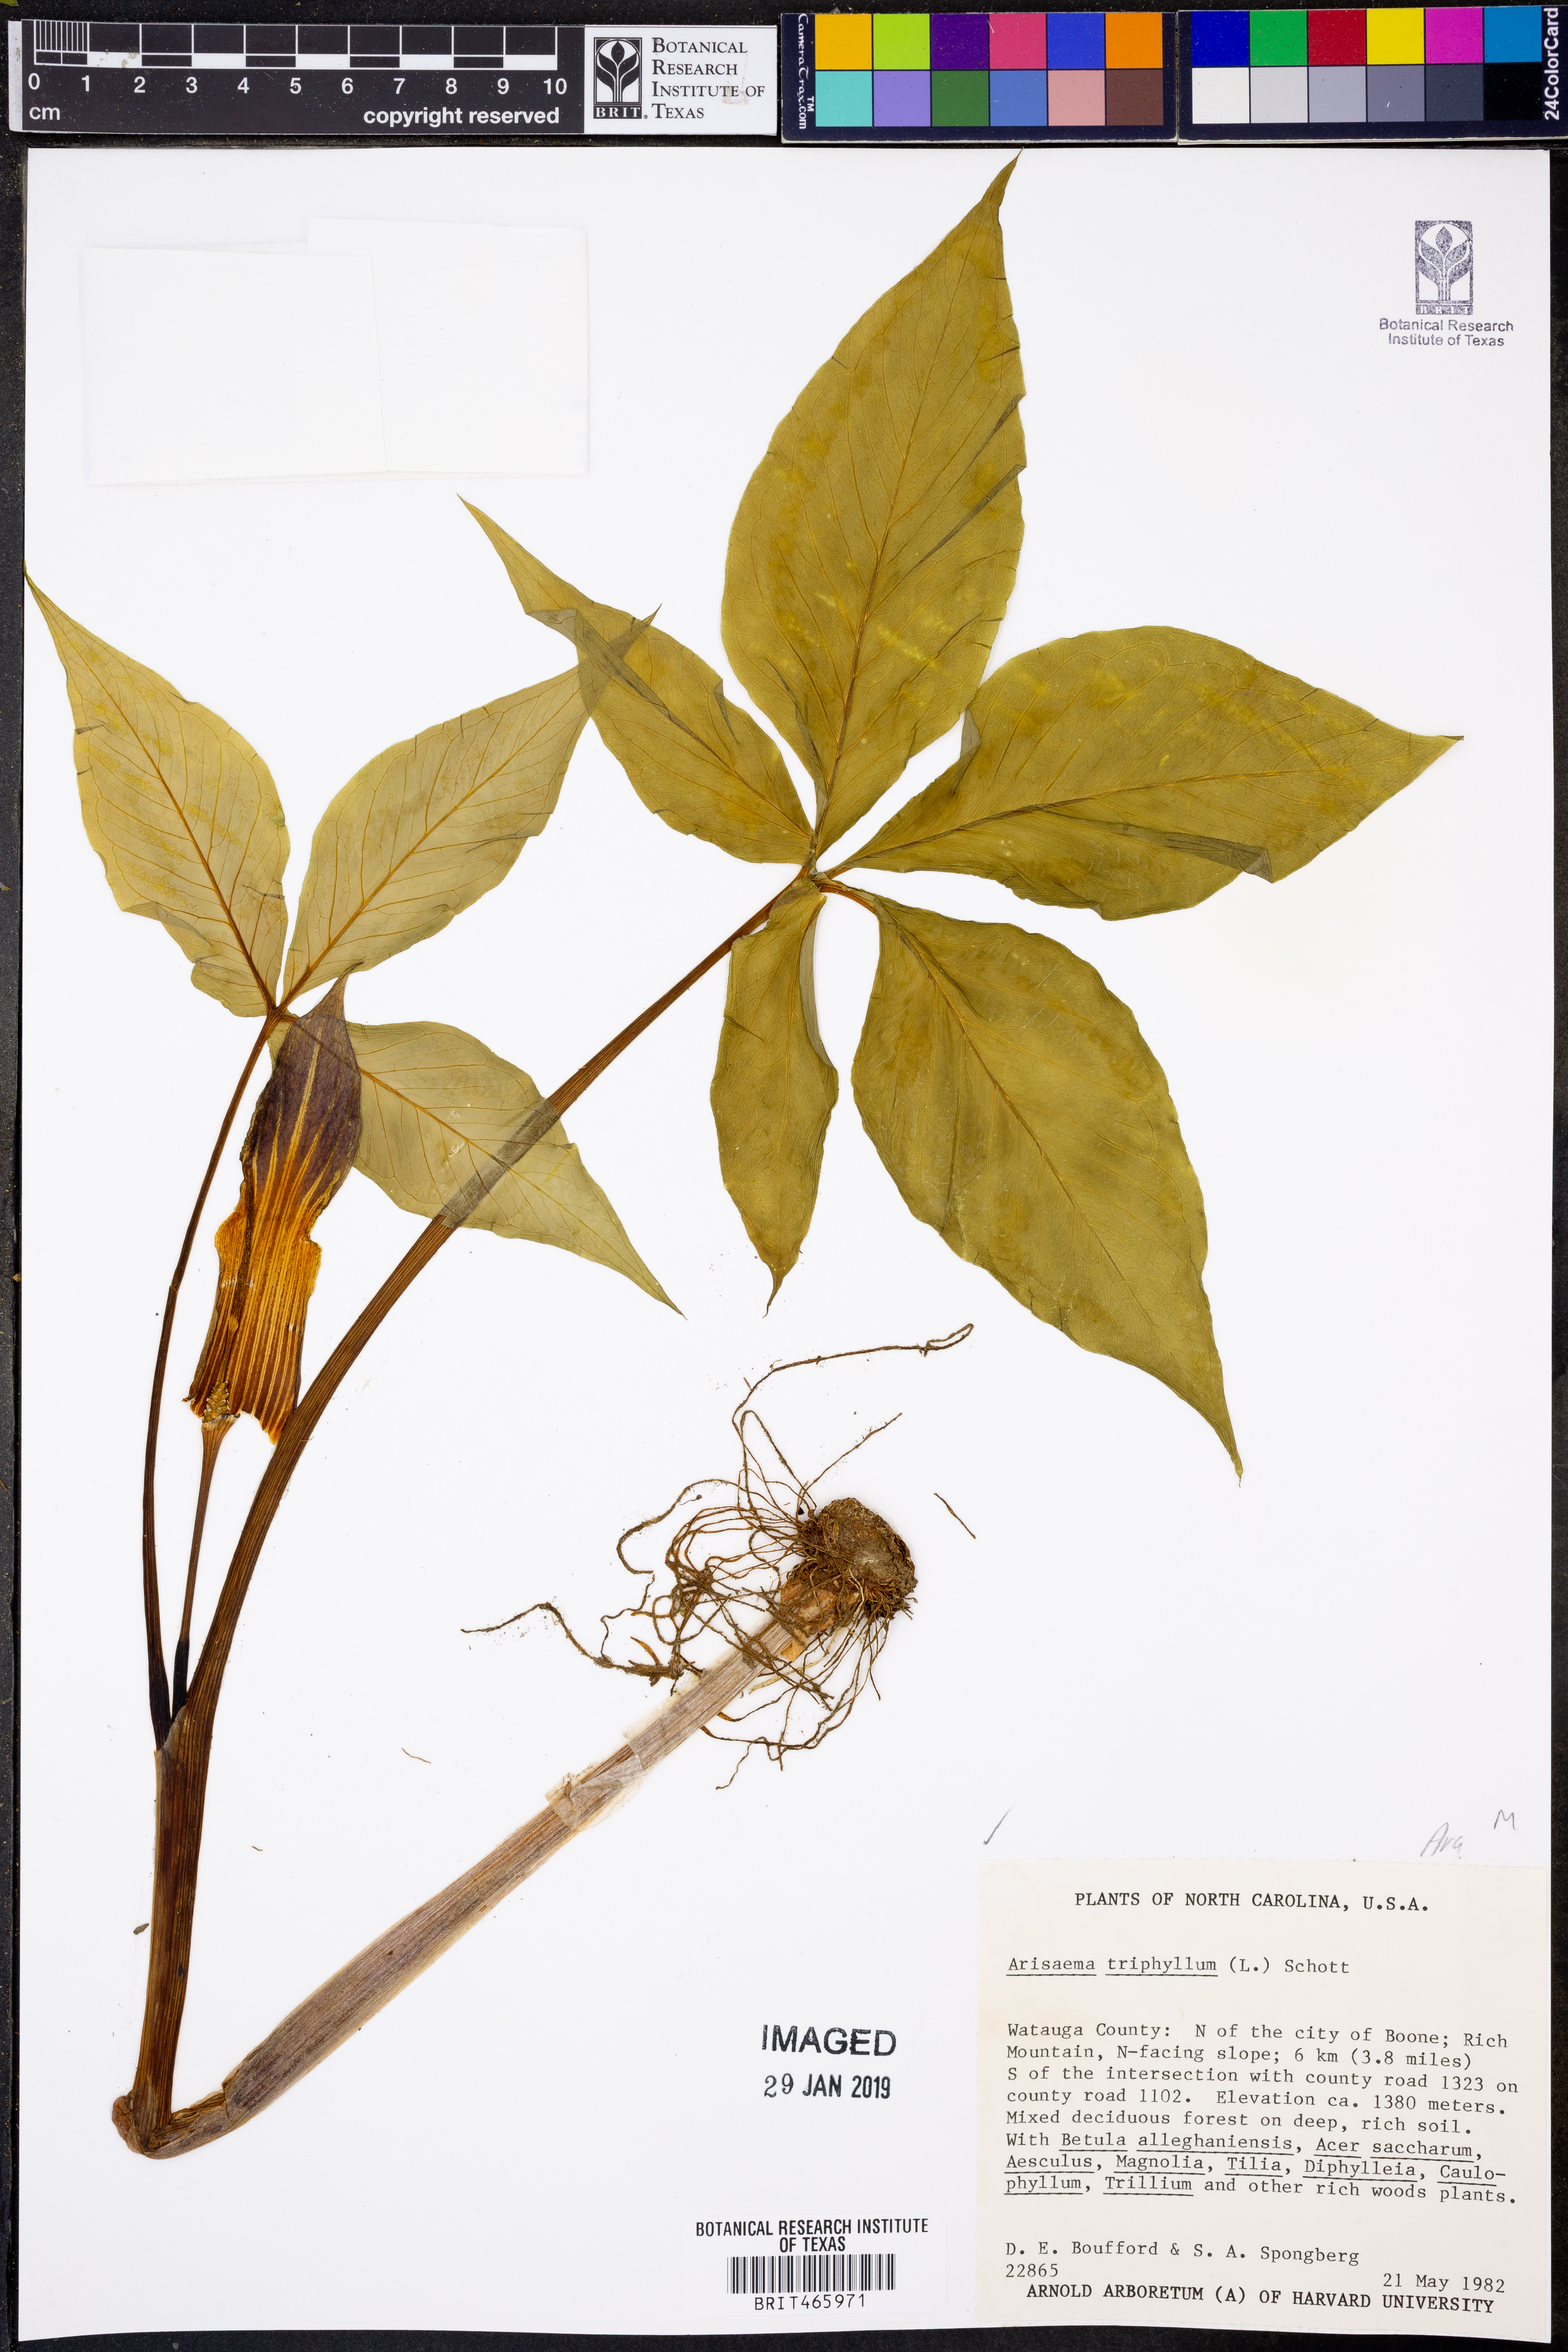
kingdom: Plantae
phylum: Tracheophyta
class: Liliopsida
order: Alismatales
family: Araceae
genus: Arisaema
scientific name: Arisaema triphyllum
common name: Jack-in-the-pulpit
